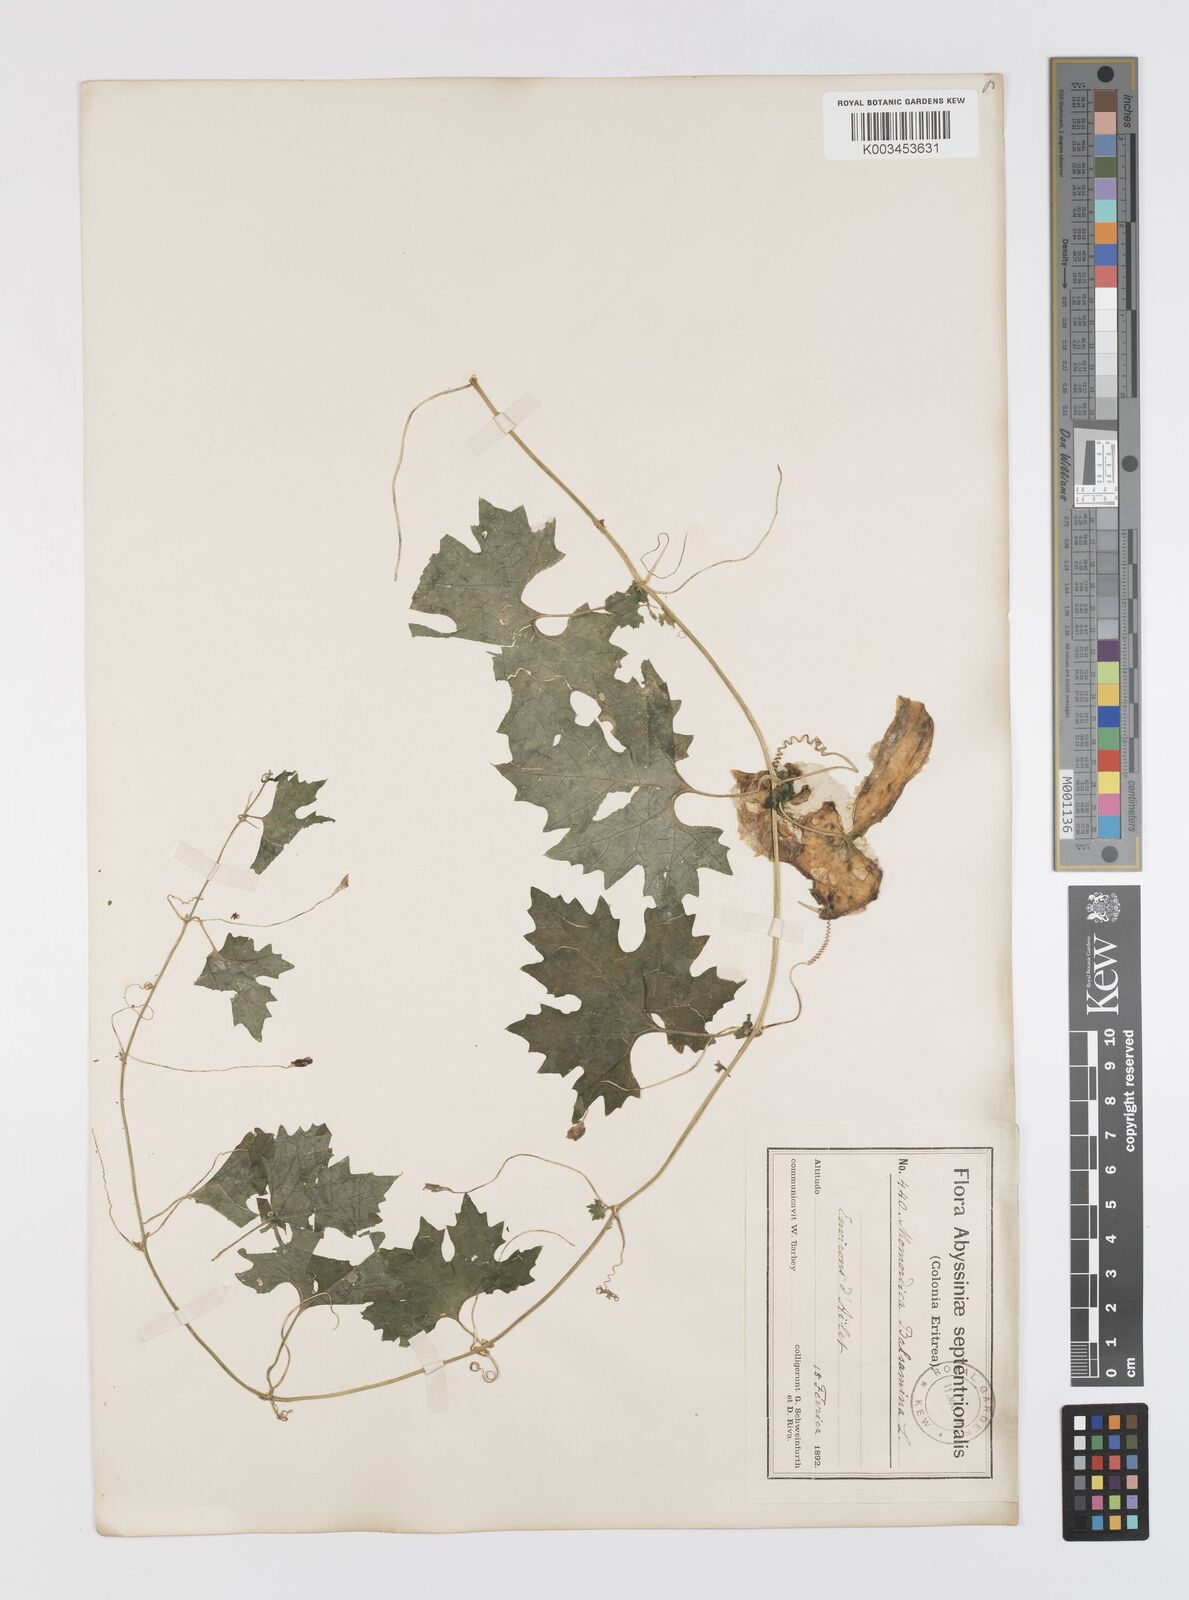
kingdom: Plantae
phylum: Tracheophyta
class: Magnoliopsida
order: Cucurbitales
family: Cucurbitaceae
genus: Momordica
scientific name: Momordica balsamina
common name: Southern balsampear
